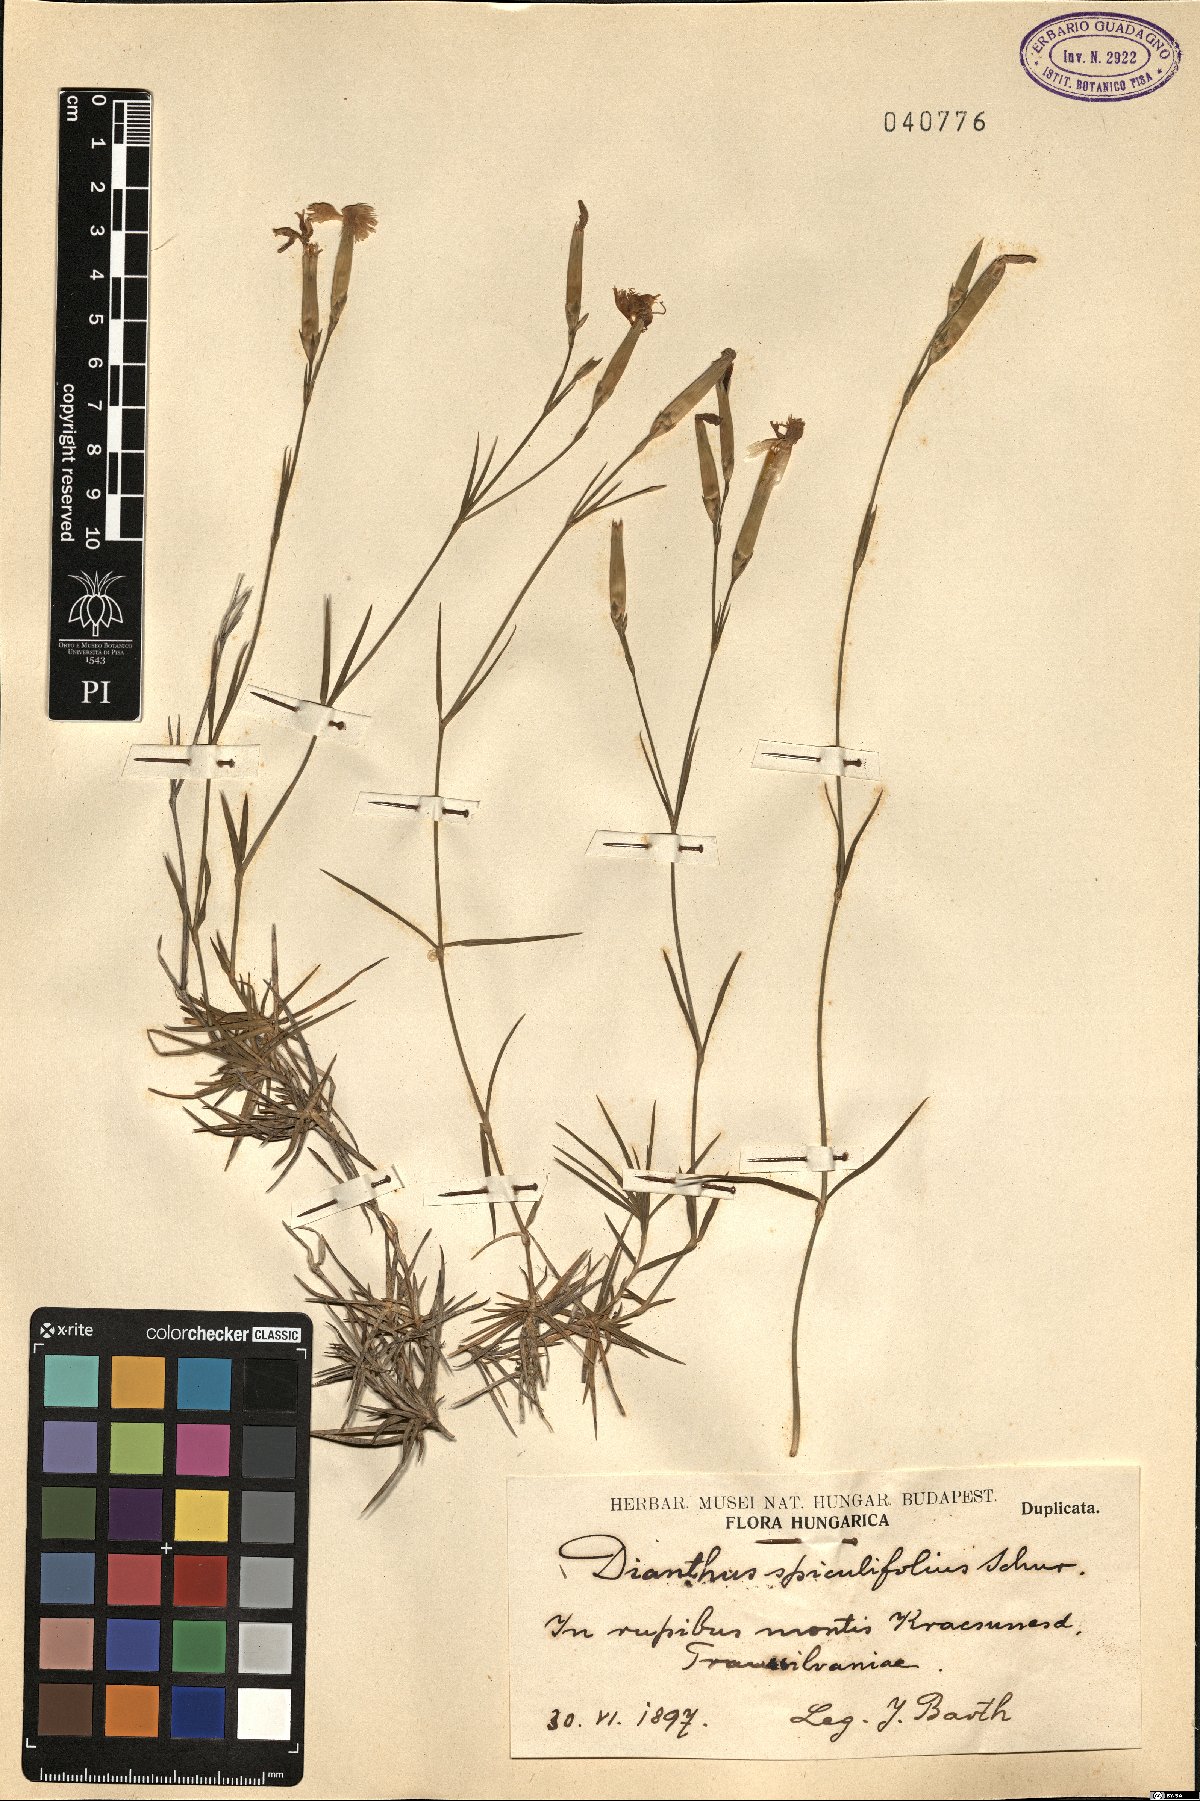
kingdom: Plantae
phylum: Tracheophyta
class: Magnoliopsida
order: Caryophyllales
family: Caryophyllaceae
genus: Dianthus
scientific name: Dianthus spiculifolius
